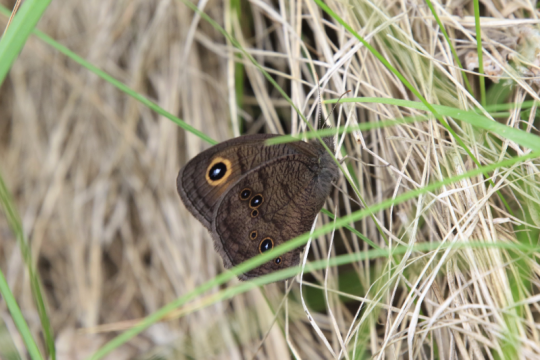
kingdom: Animalia
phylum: Arthropoda
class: Insecta
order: Lepidoptera
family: Nymphalidae
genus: Cercyonis
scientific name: Cercyonis pegala
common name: Common Wood-Nymph
